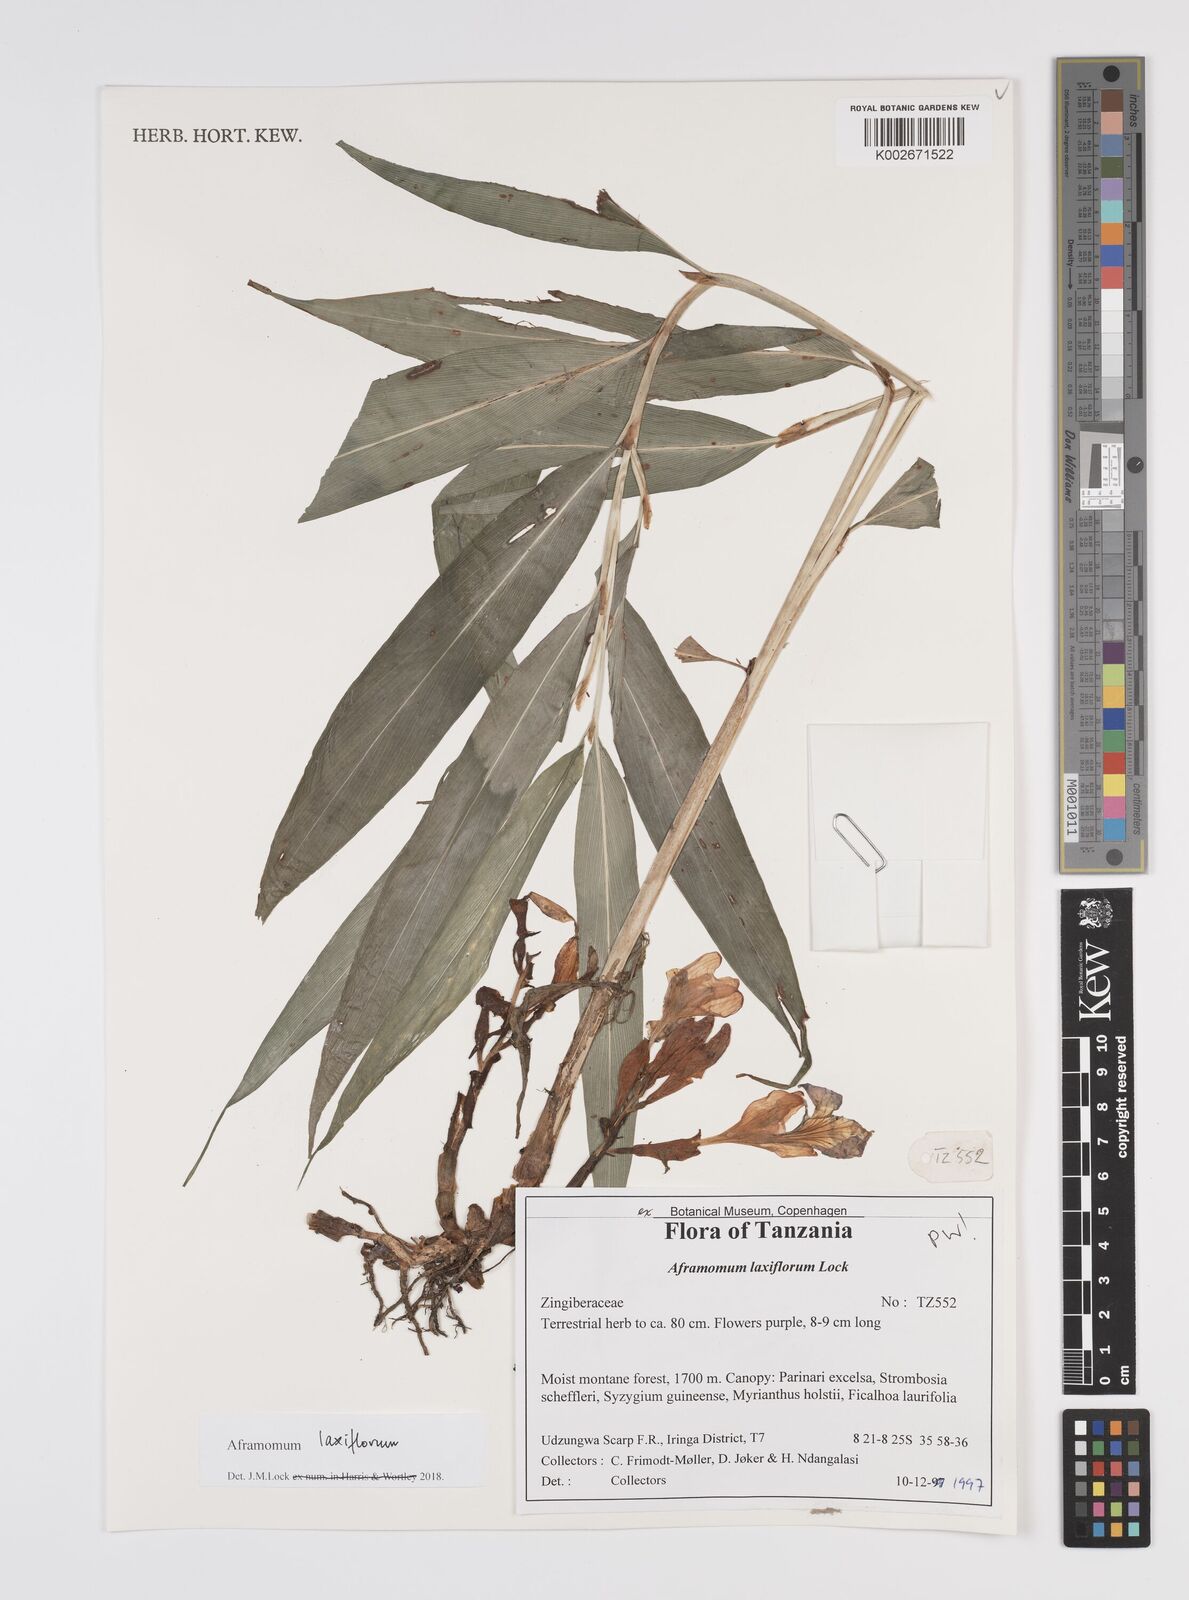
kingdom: Plantae
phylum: Tracheophyta
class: Liliopsida
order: Zingiberales
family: Zingiberaceae
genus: Aframomum
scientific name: Aframomum laxiflorum
